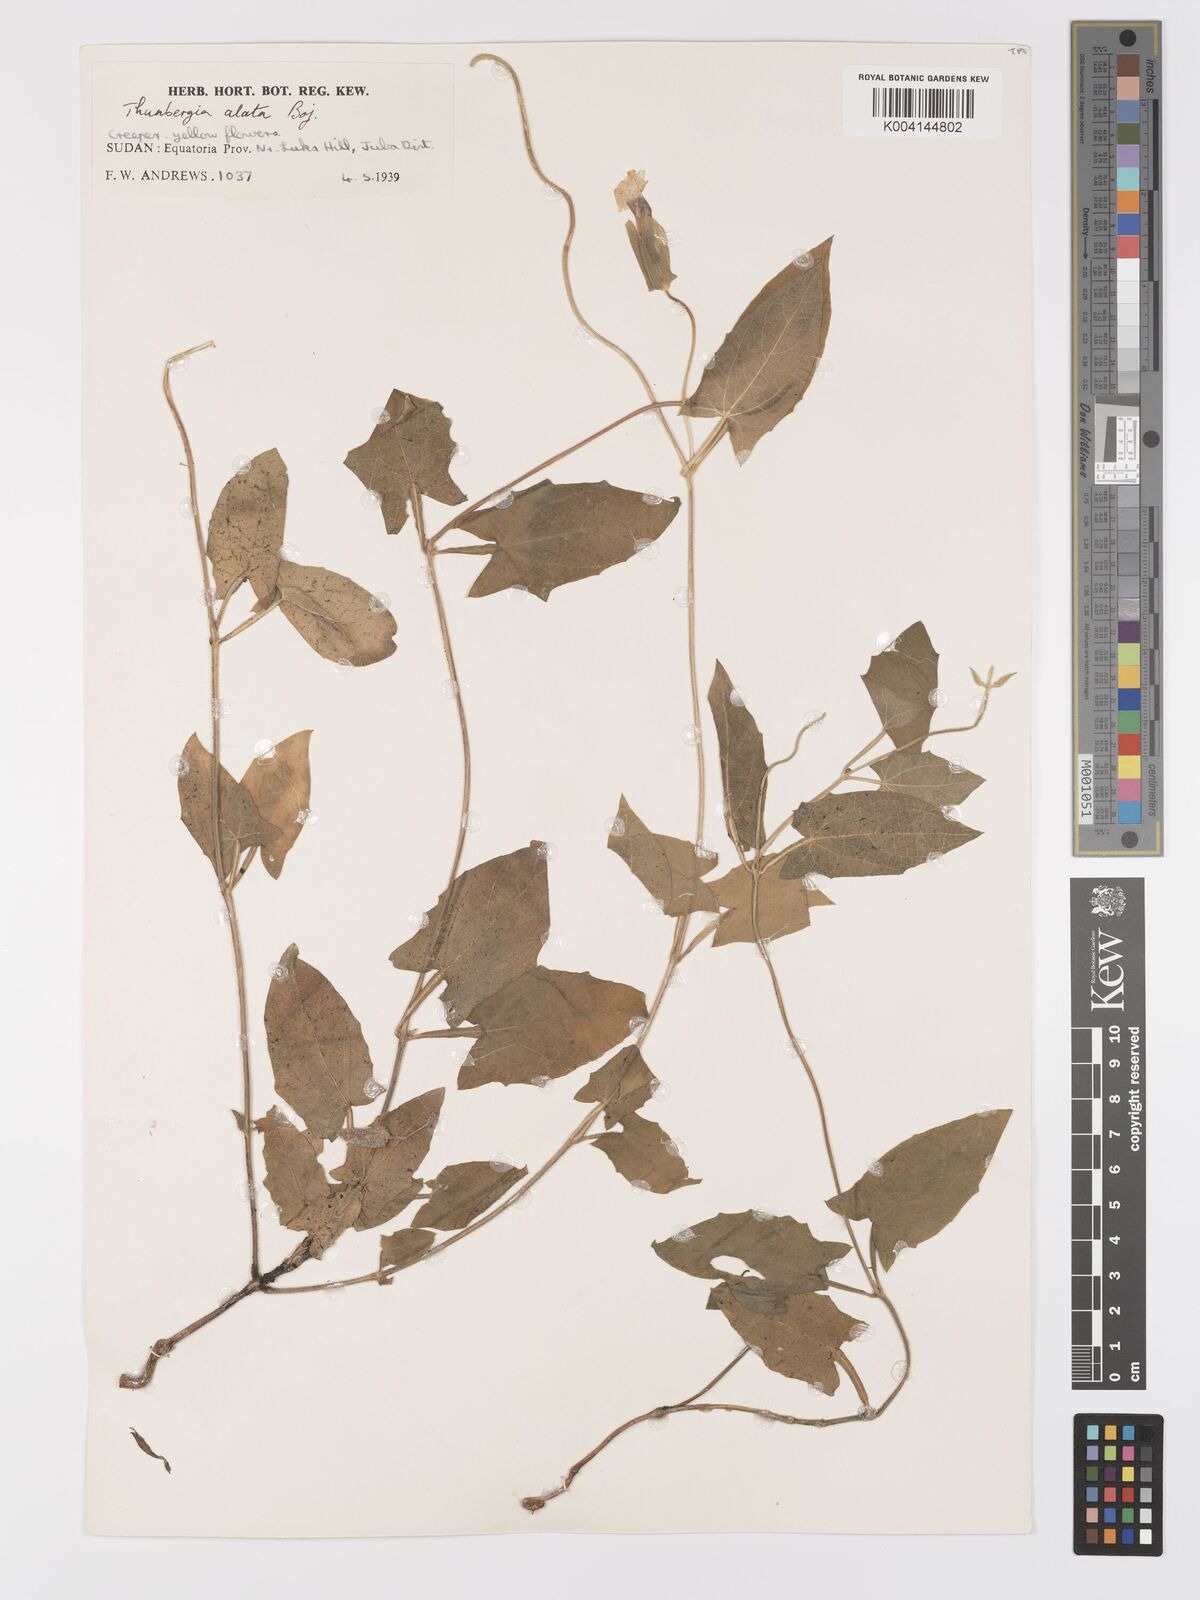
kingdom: Plantae
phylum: Tracheophyta
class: Magnoliopsida
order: Lamiales
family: Acanthaceae
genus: Thunbergia
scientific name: Thunbergia alata
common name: Blackeyed susan vine
